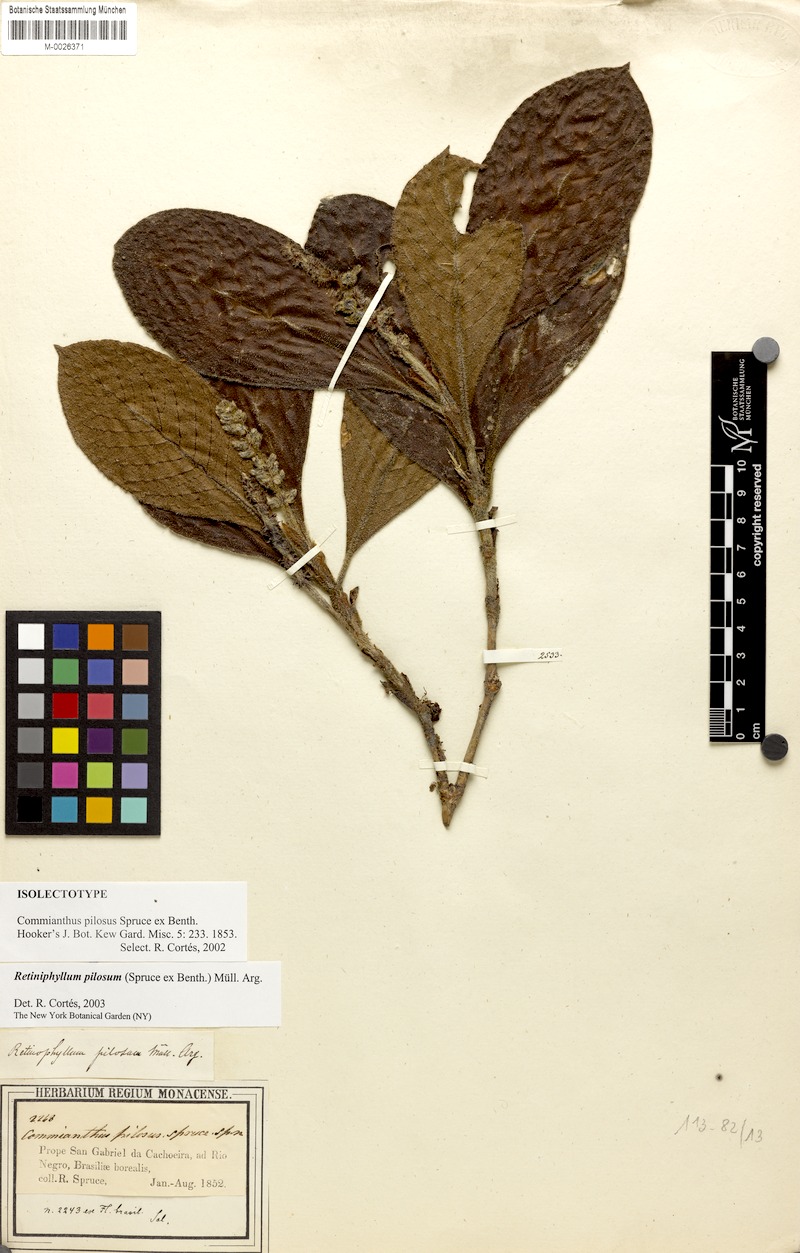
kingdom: Plantae
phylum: Tracheophyta
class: Magnoliopsida
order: Gentianales
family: Rubiaceae
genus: Retiniphyllum
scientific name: Retiniphyllum pilosum
